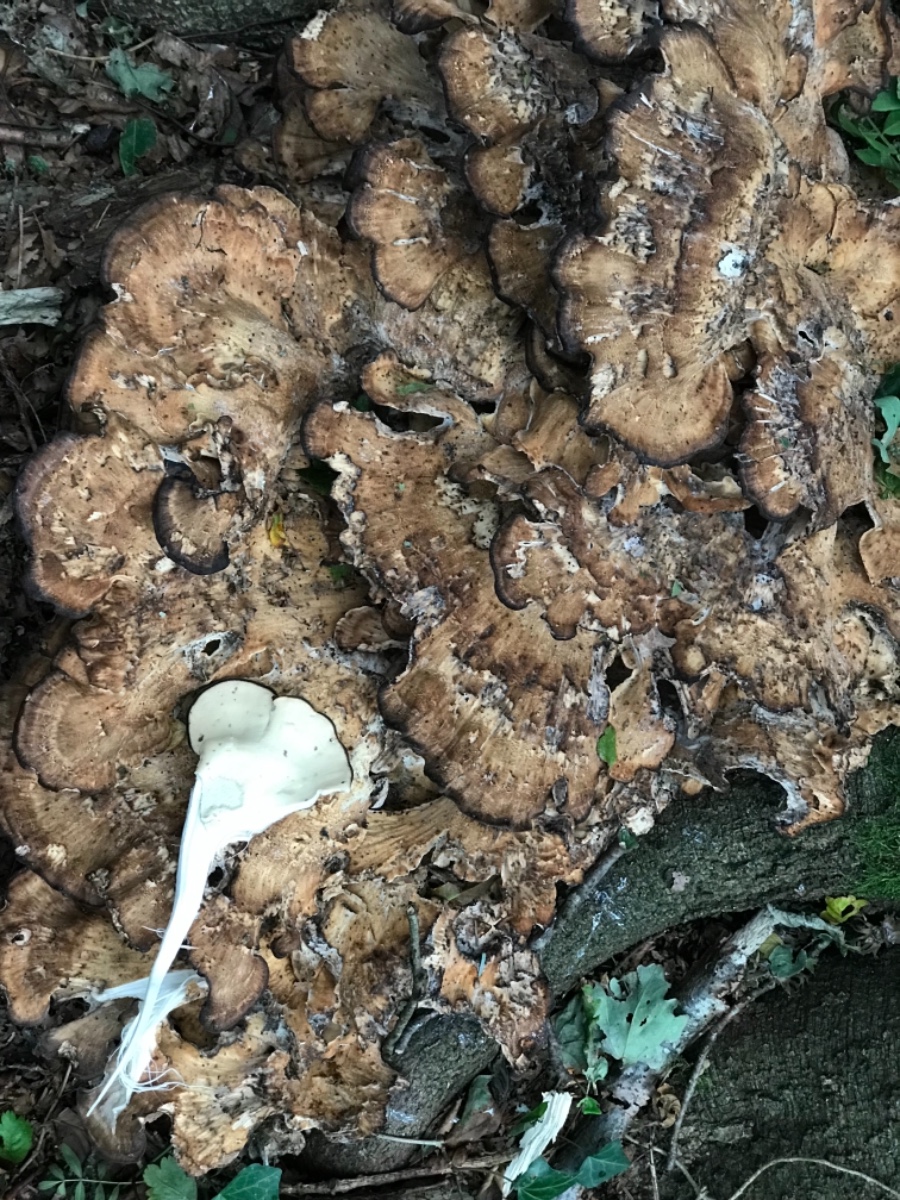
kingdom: Fungi
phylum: Basidiomycota
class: Agaricomycetes
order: Polyporales
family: Meripilaceae
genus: Meripilus
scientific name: Meripilus giganteus
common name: kæmpeporesvamp
